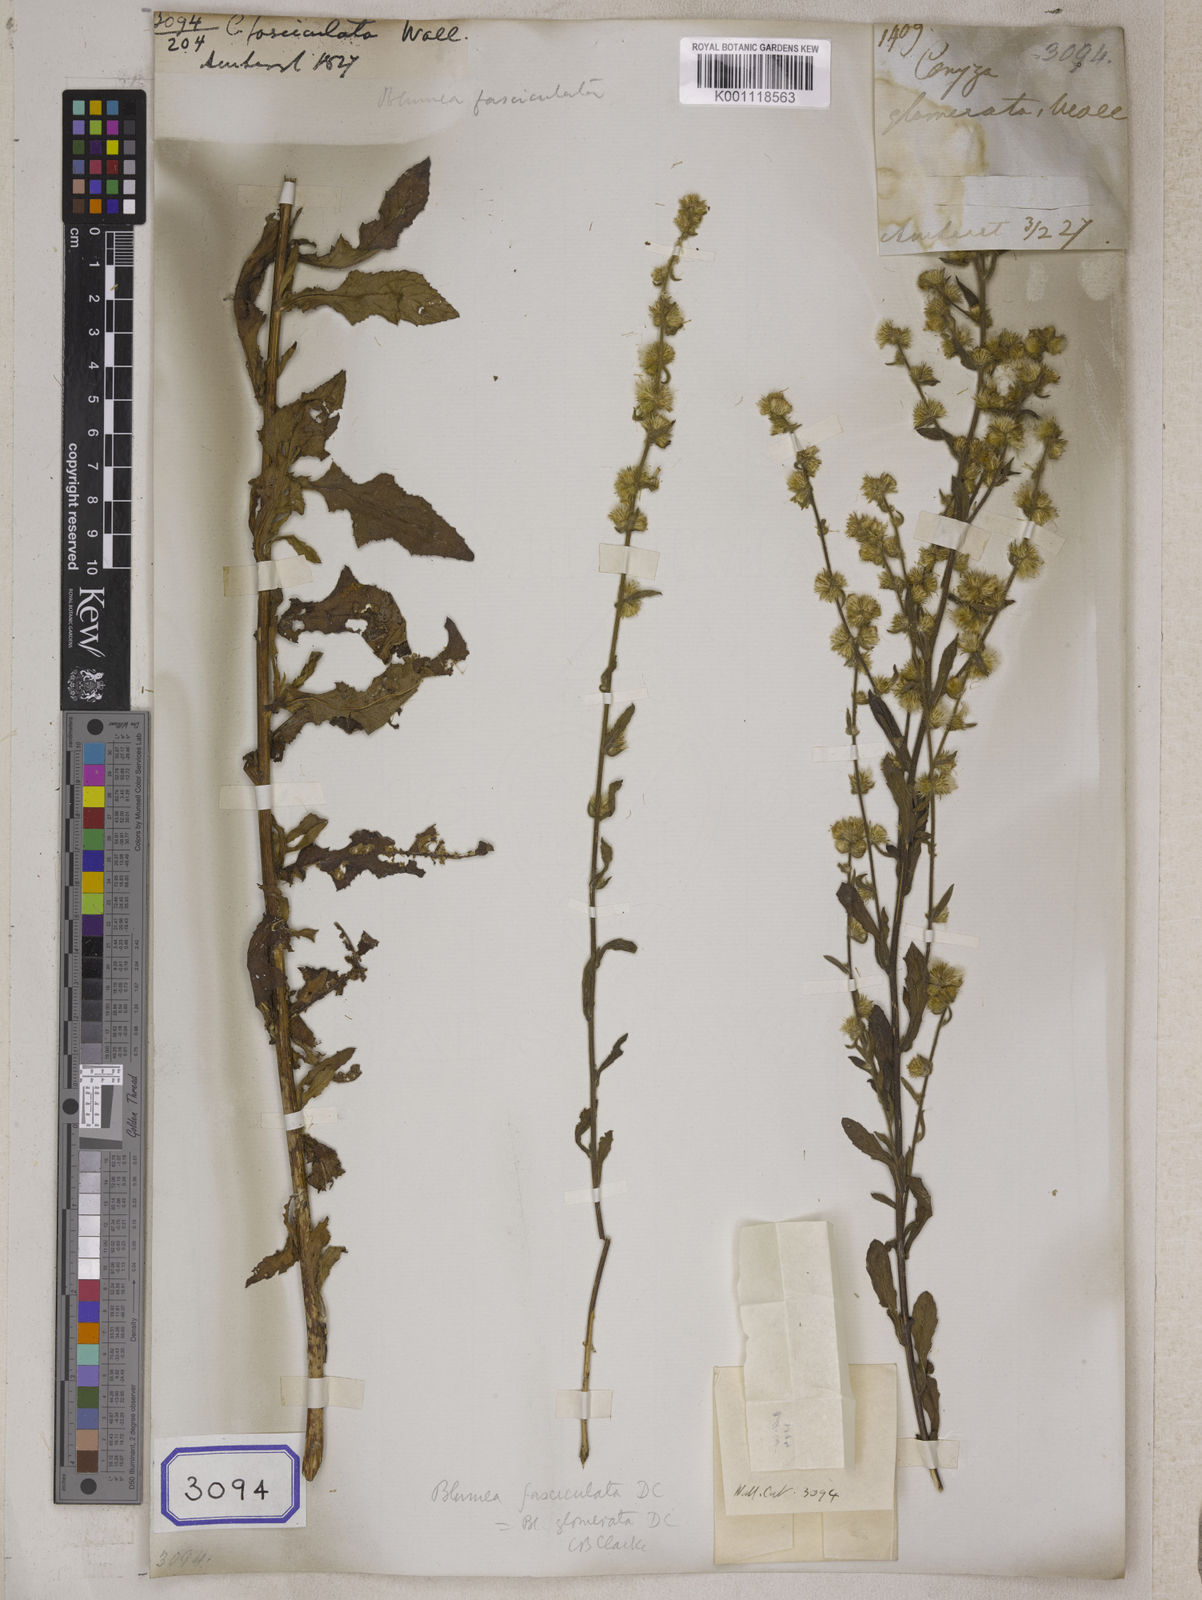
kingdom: Plantae
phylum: Tracheophyta
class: Magnoliopsida
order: Asterales
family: Asteraceae
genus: Blumea
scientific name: Blumea sessiliflora
